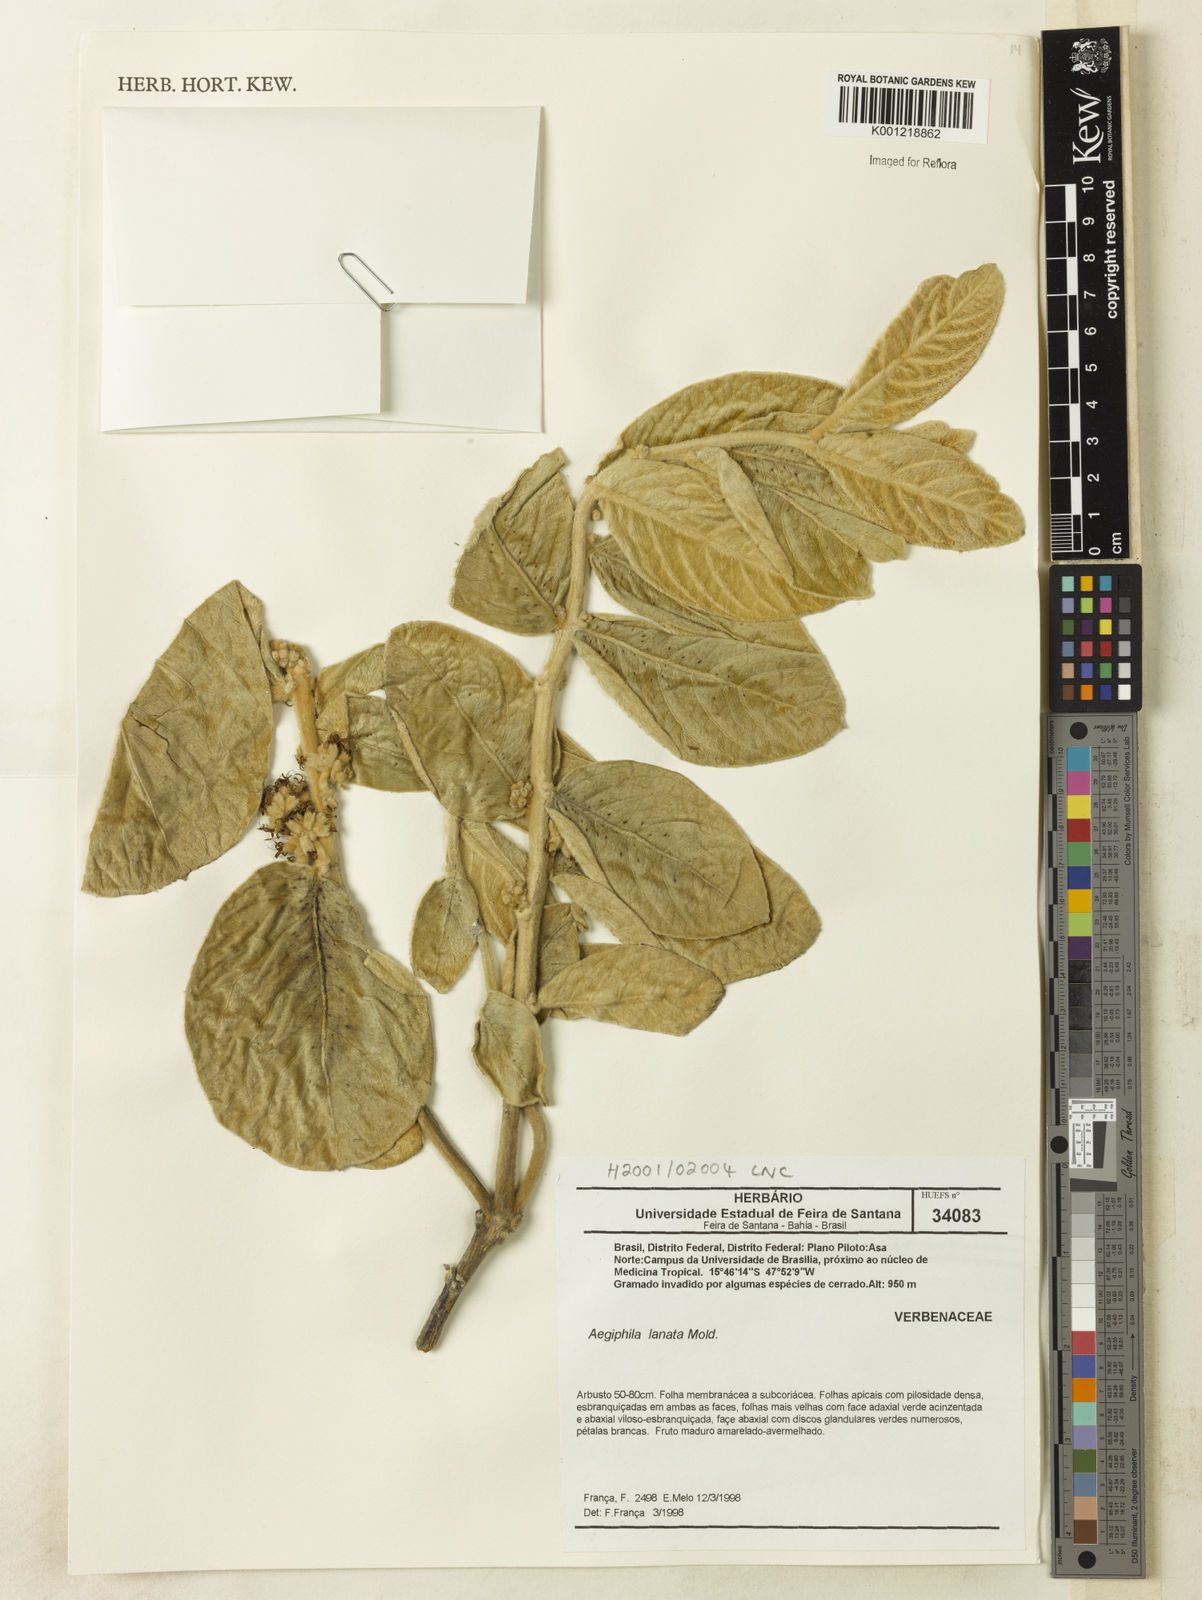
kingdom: Plantae
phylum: Tracheophyta
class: Magnoliopsida
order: Lamiales
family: Lamiaceae
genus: Aegiphila
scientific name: Aegiphila lanata
